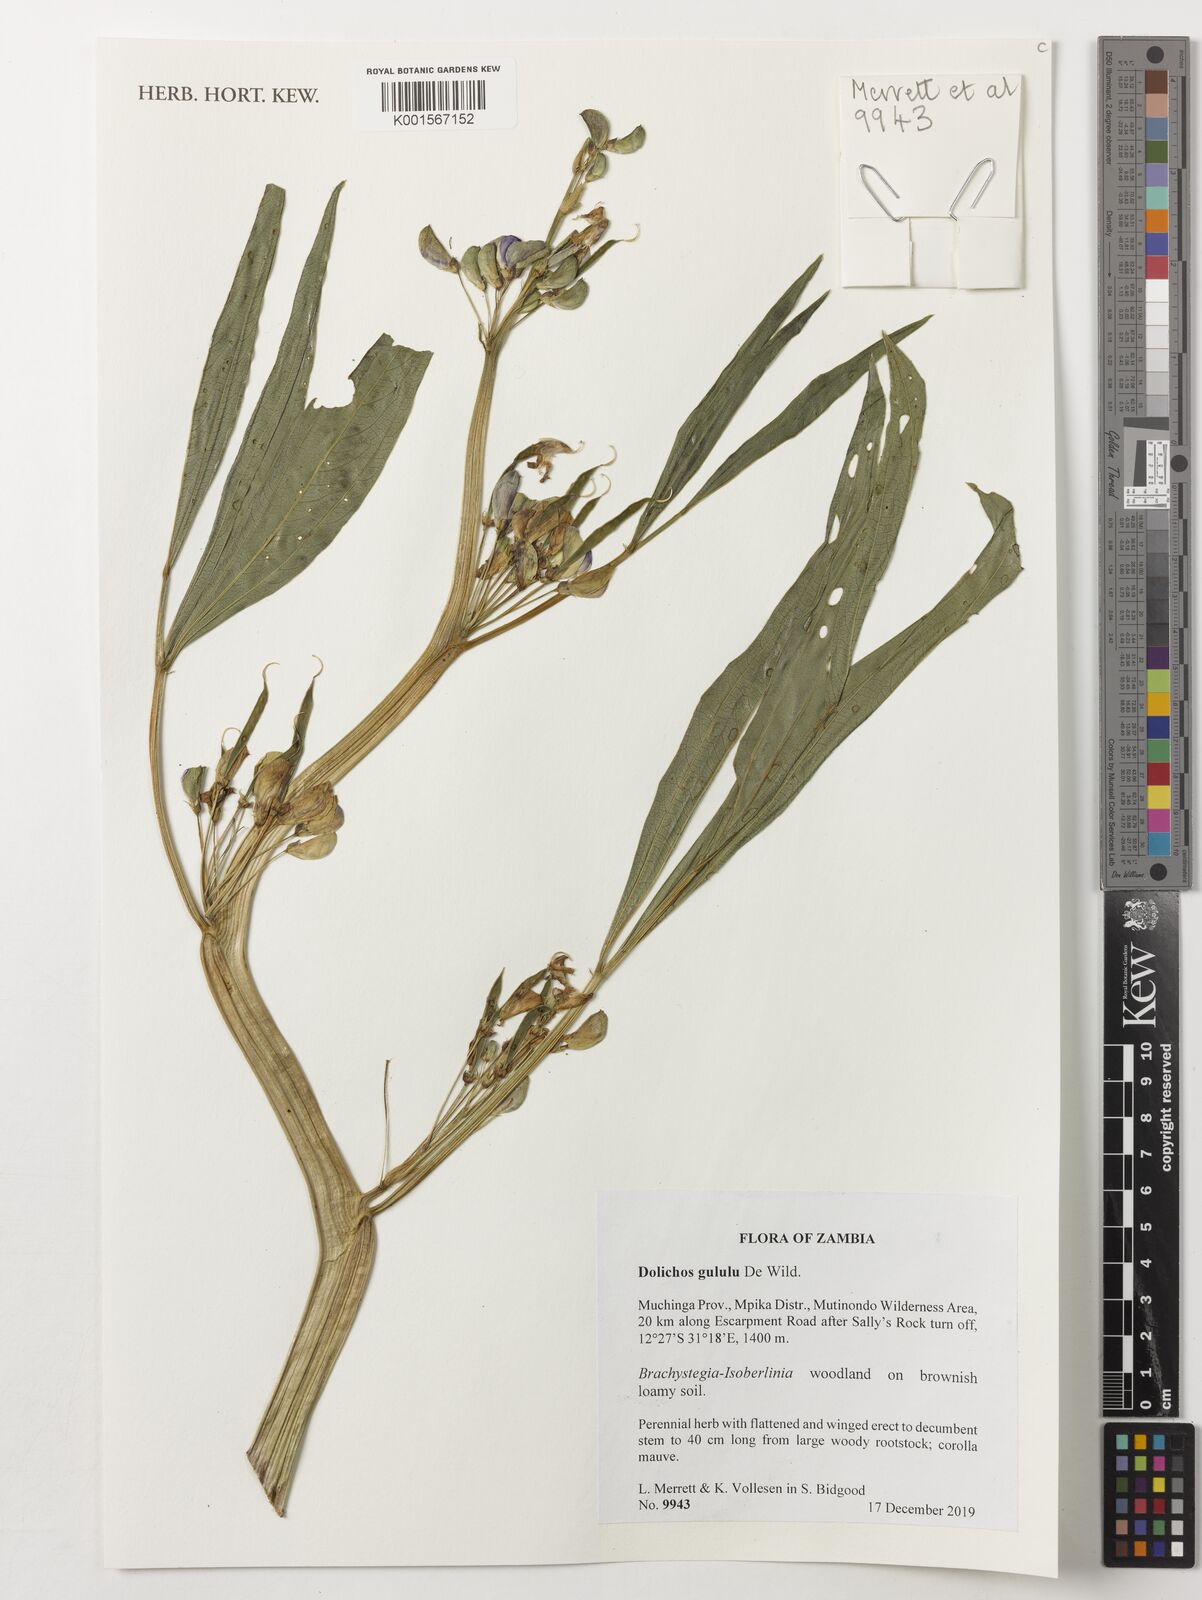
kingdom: Plantae
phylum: Tracheophyta
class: Magnoliopsida
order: Fabales
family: Fabaceae
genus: Dolichos
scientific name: Dolichos gululu
